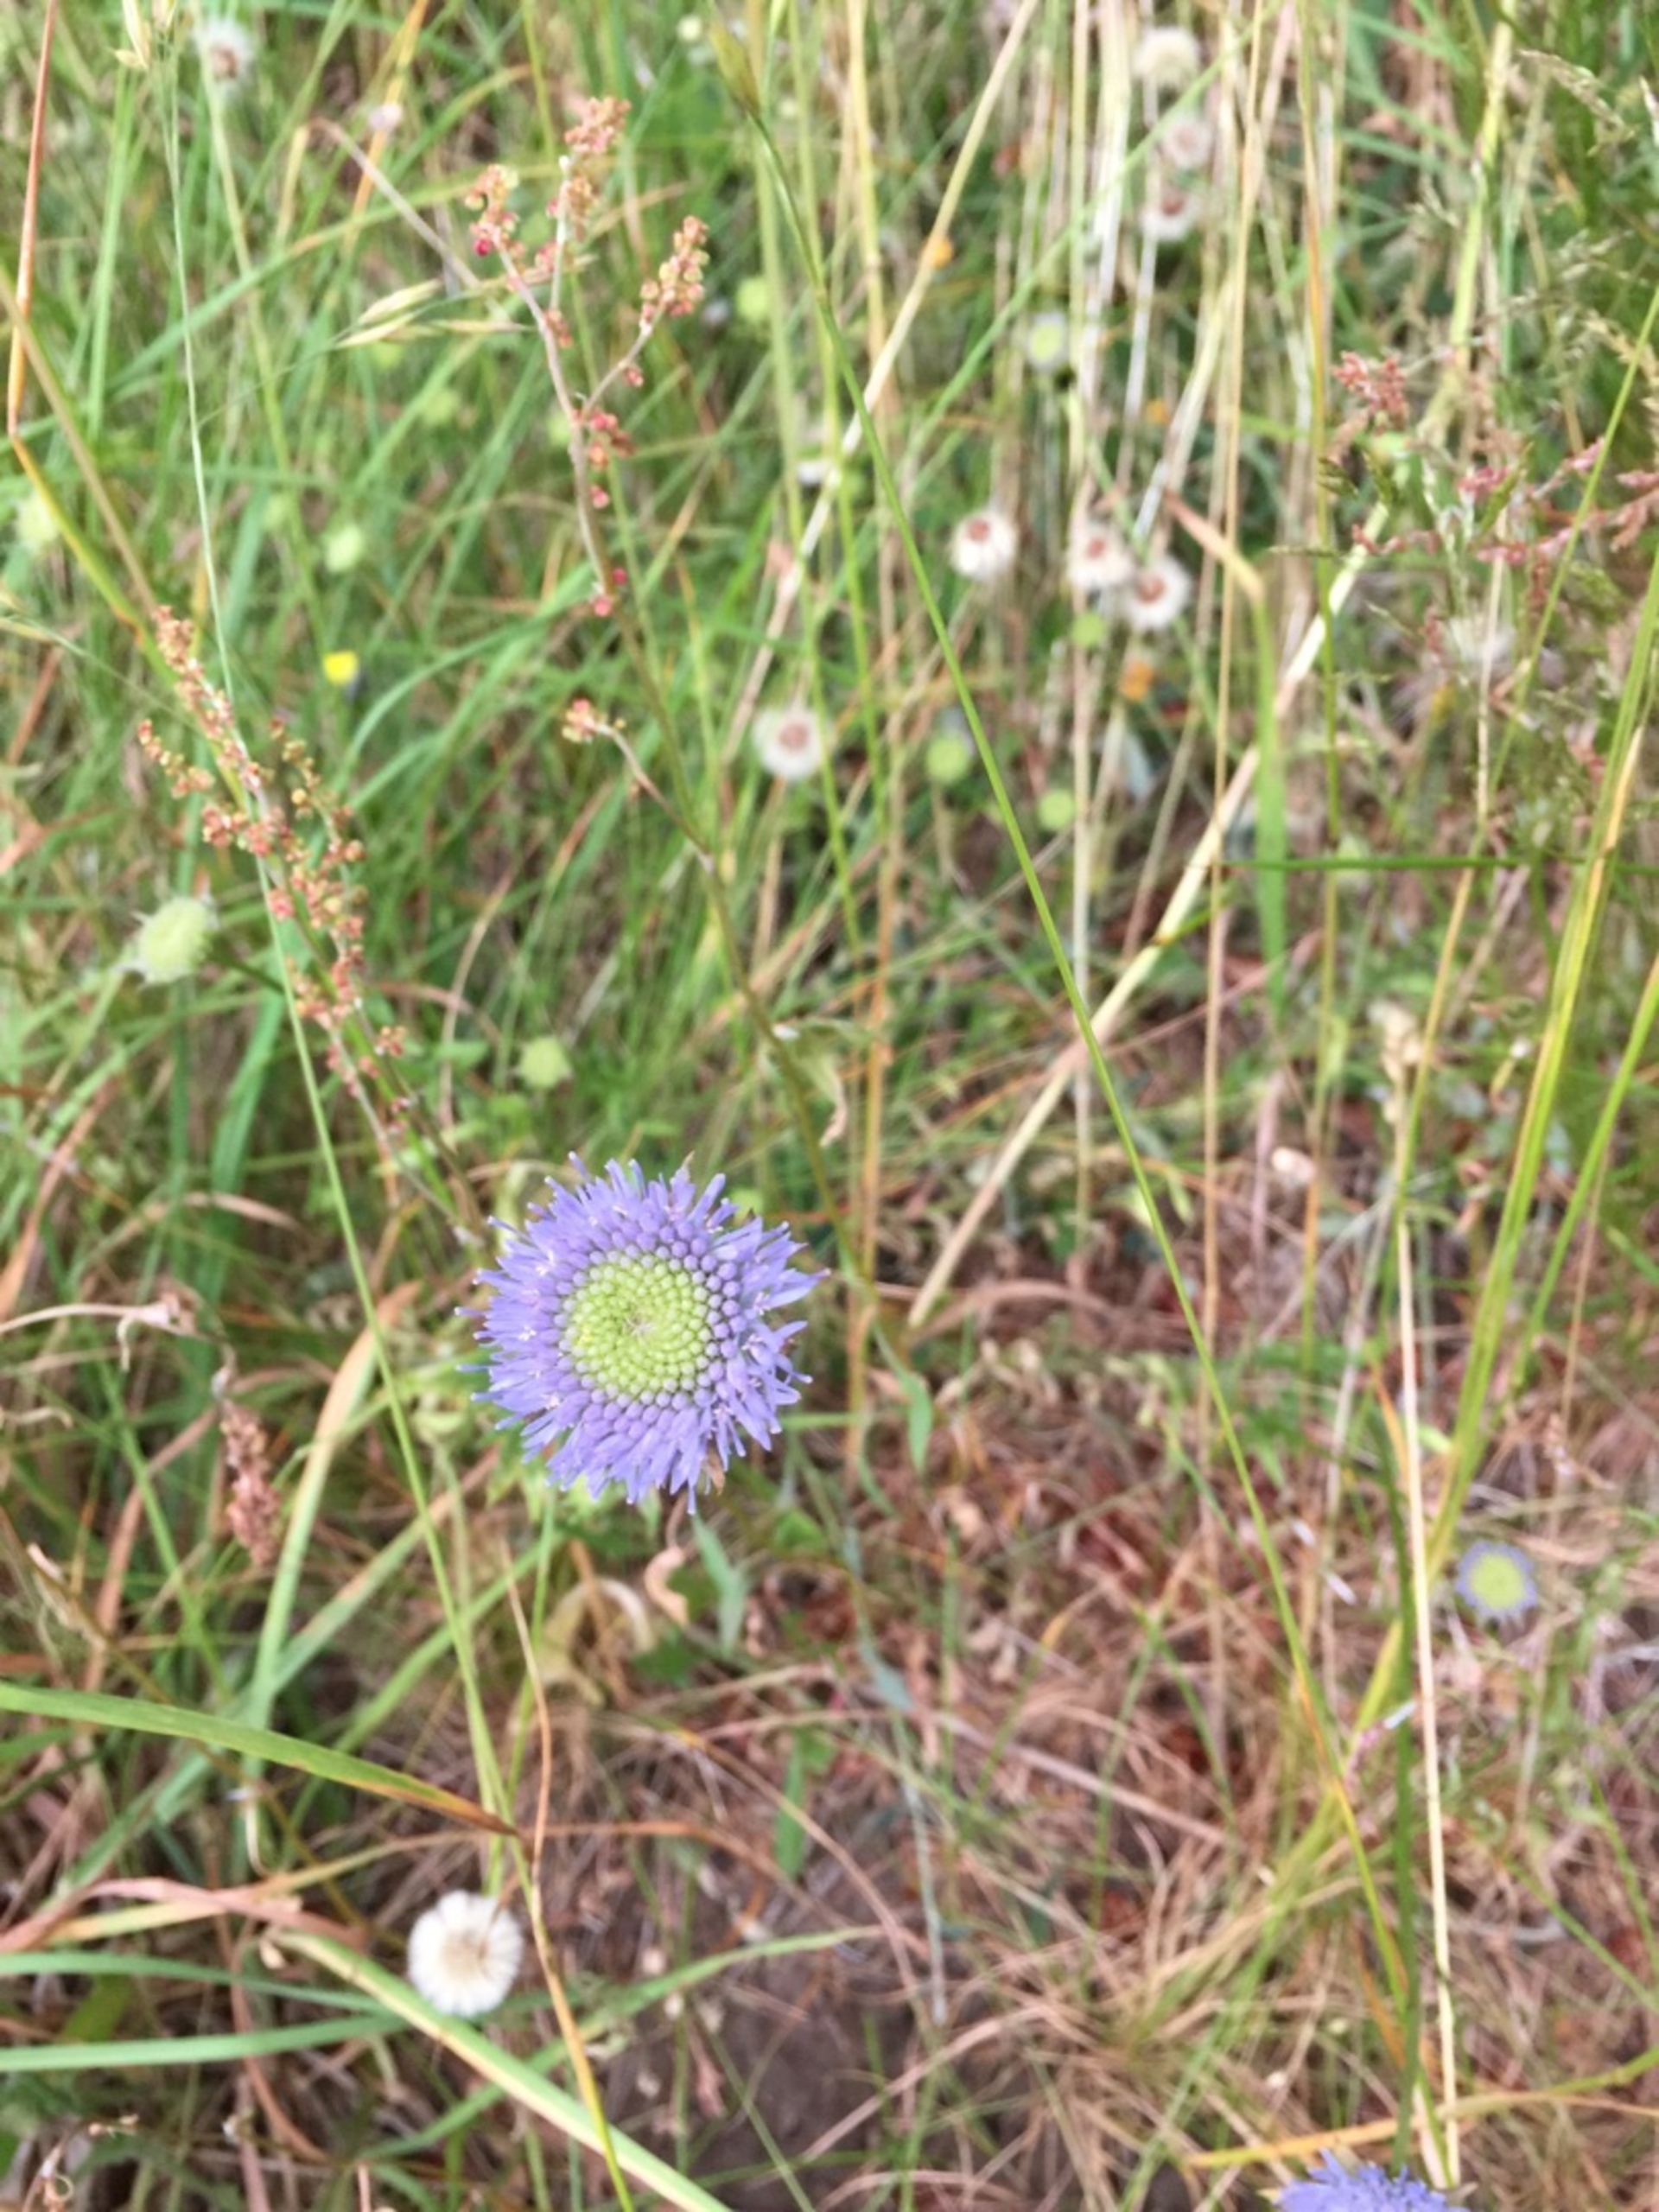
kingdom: Plantae
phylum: Tracheophyta
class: Magnoliopsida
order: Asterales
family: Campanulaceae
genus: Jasione
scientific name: Jasione montana
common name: Blåmunke
